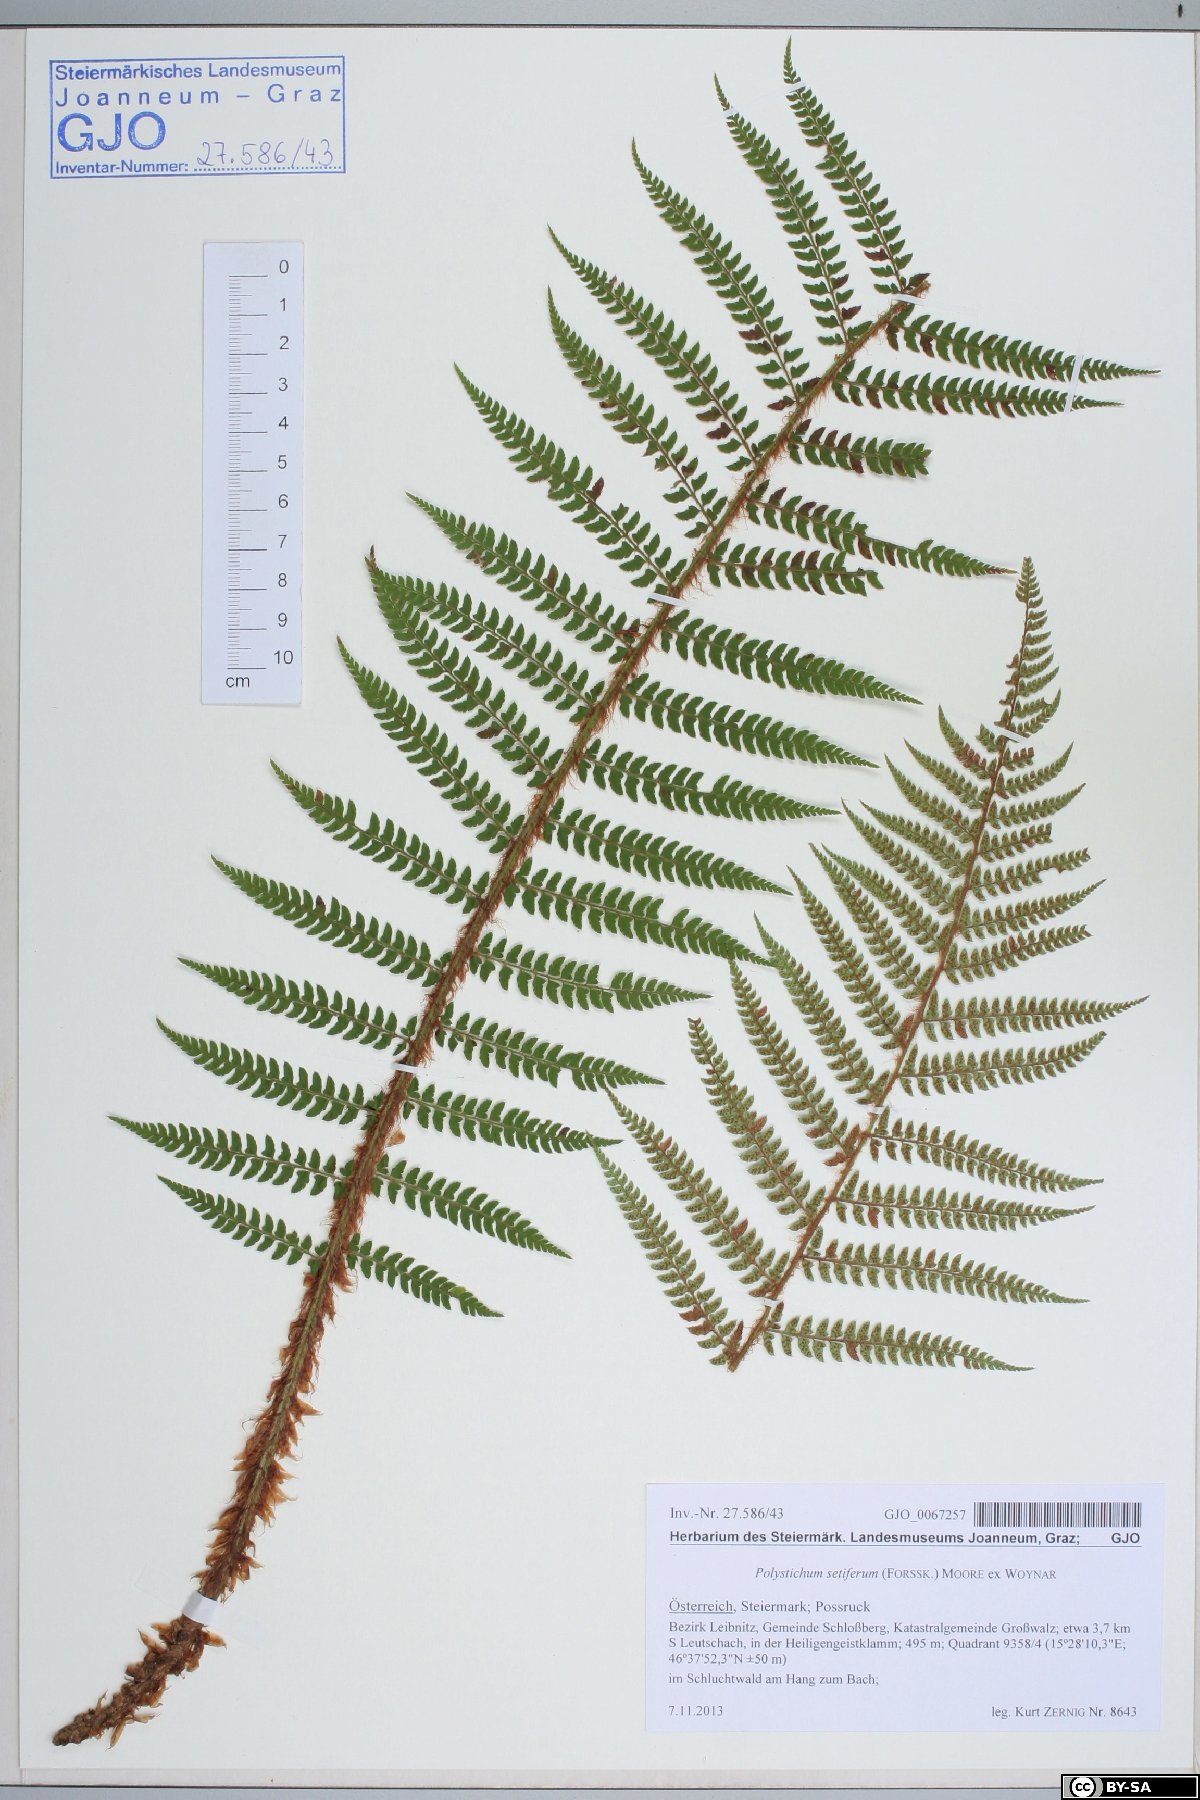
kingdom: Plantae
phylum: Tracheophyta
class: Polypodiopsida
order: Polypodiales
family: Dryopteridaceae
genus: Polystichum
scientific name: Polystichum setiferum
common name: Soft shield-fern
